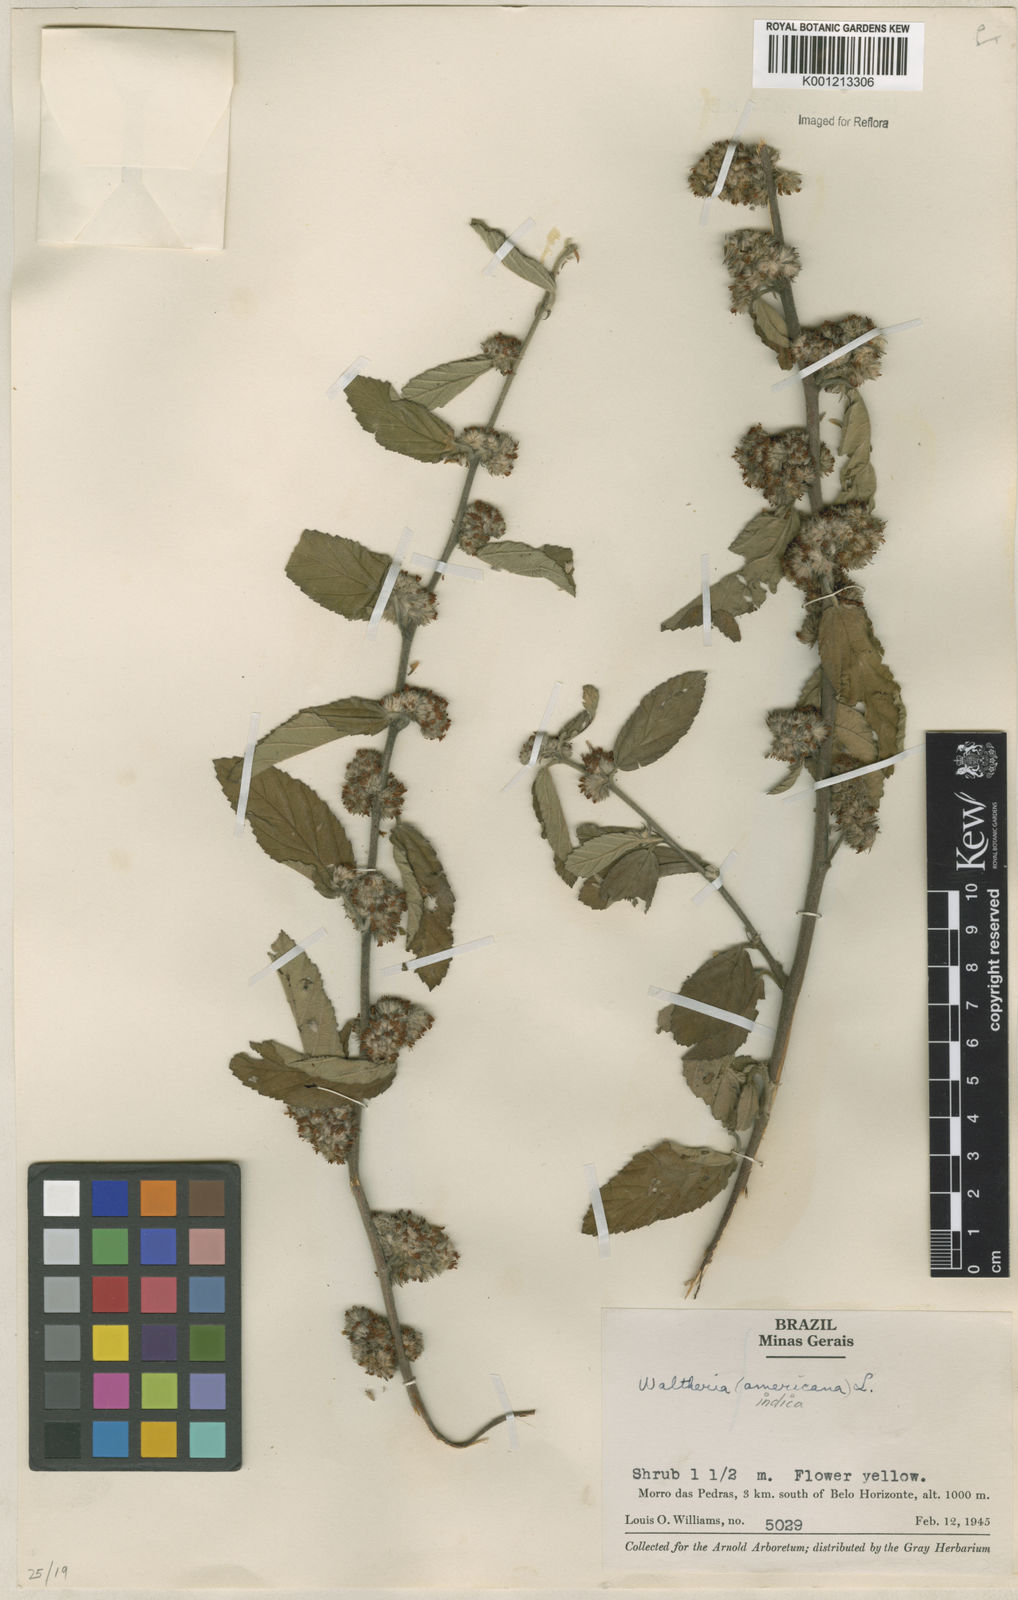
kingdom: Plantae
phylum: Tracheophyta
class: Magnoliopsida
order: Malvales
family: Malvaceae
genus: Waltheria
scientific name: Waltheria indica
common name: Leather-coat
